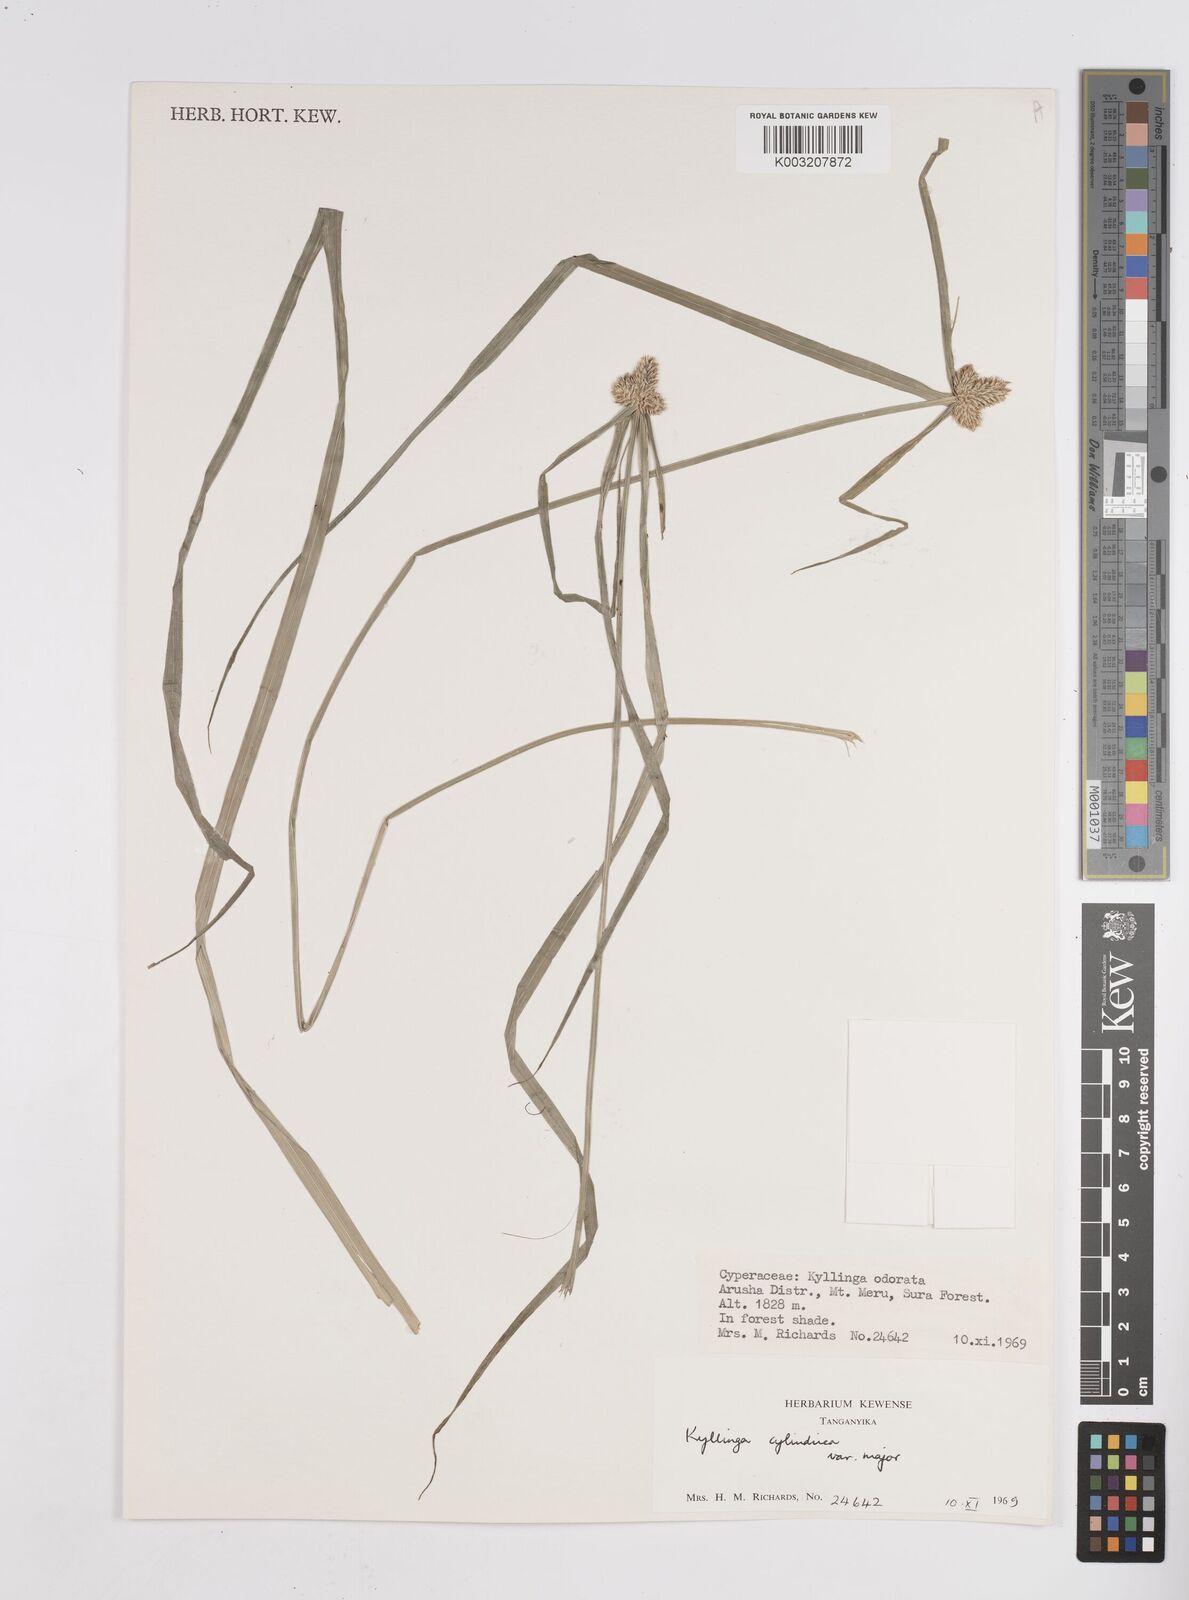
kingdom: Plantae
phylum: Tracheophyta
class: Liliopsida
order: Poales
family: Cyperaceae
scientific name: Cyperaceae
